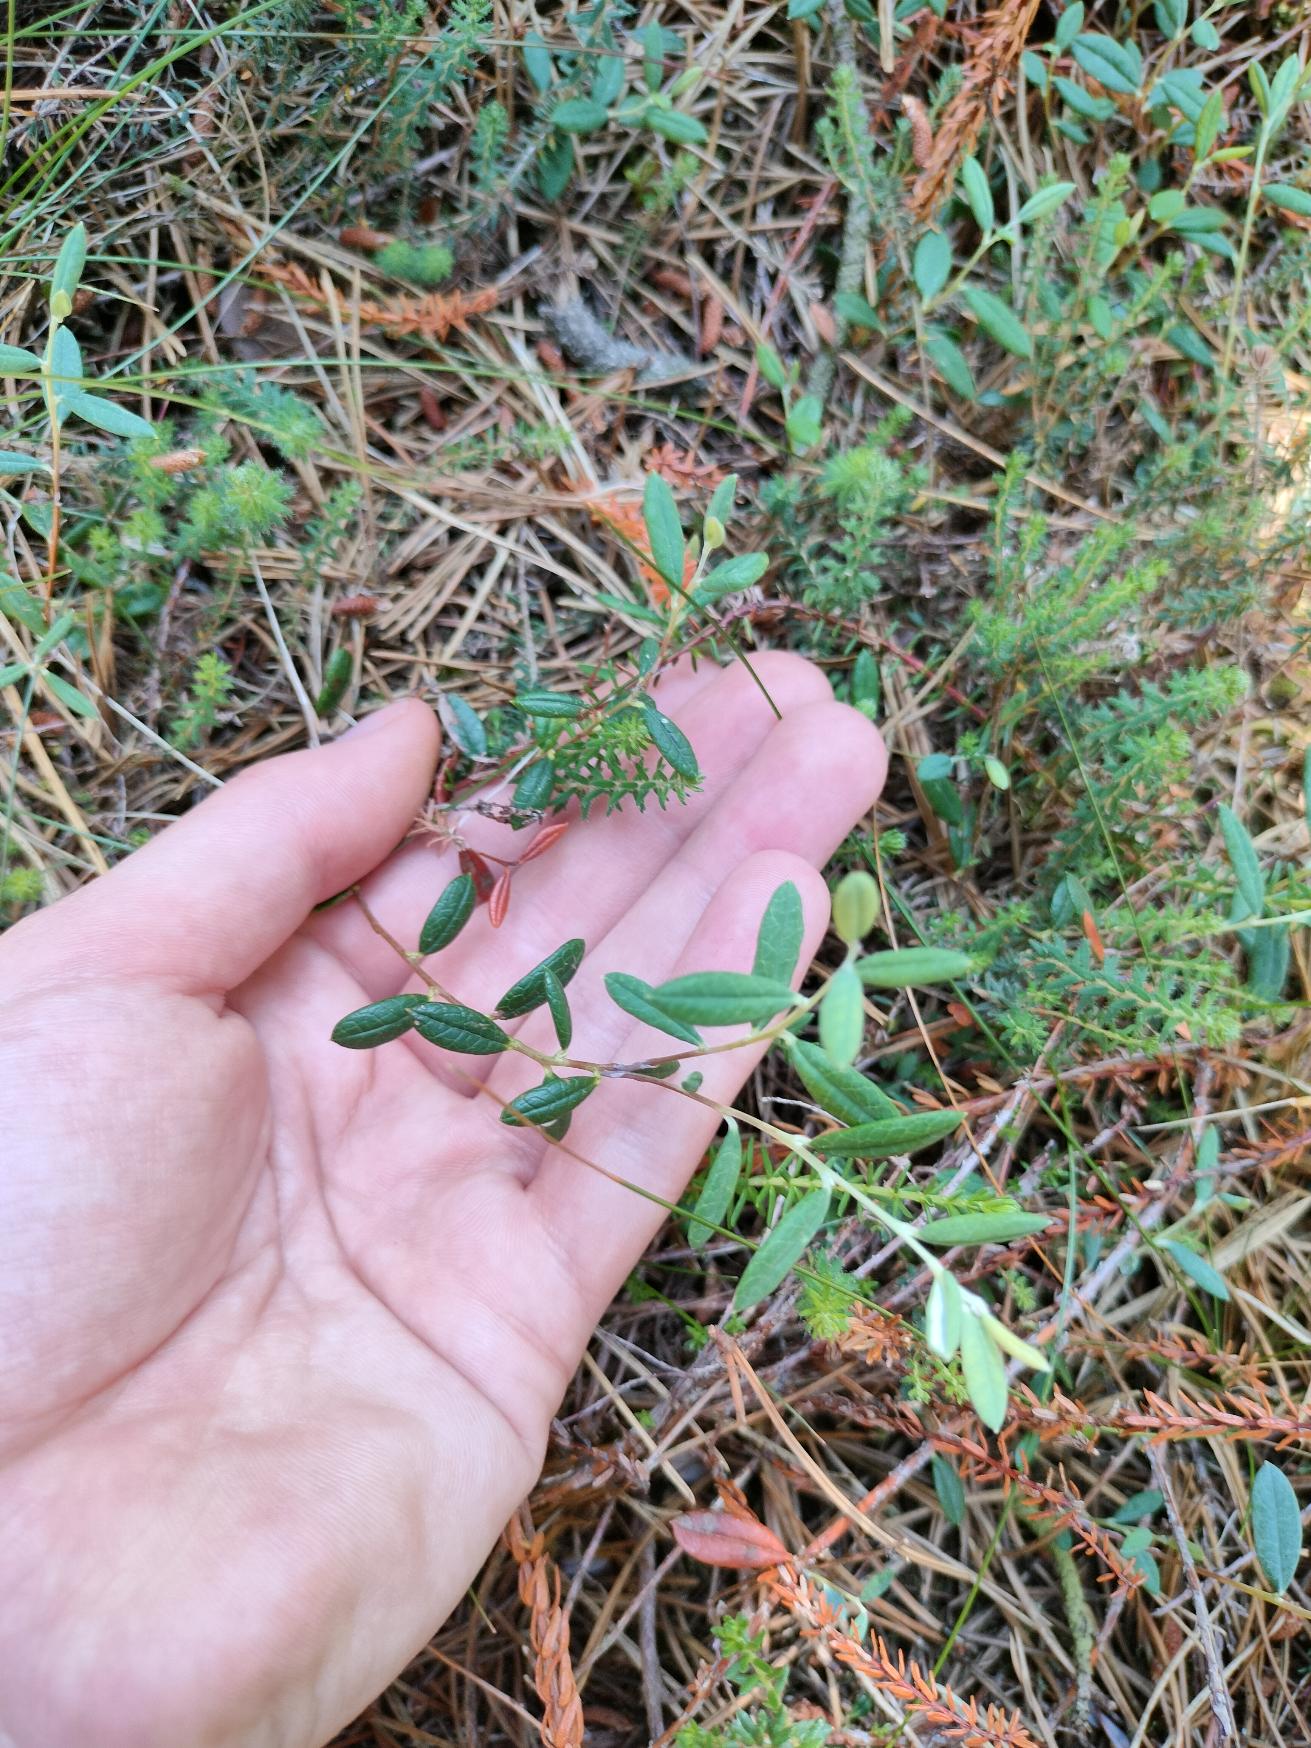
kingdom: Plantae
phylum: Tracheophyta
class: Magnoliopsida
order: Ericales
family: Ericaceae
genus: Andromeda
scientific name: Andromeda polifolia
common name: Rosmarinlyng
